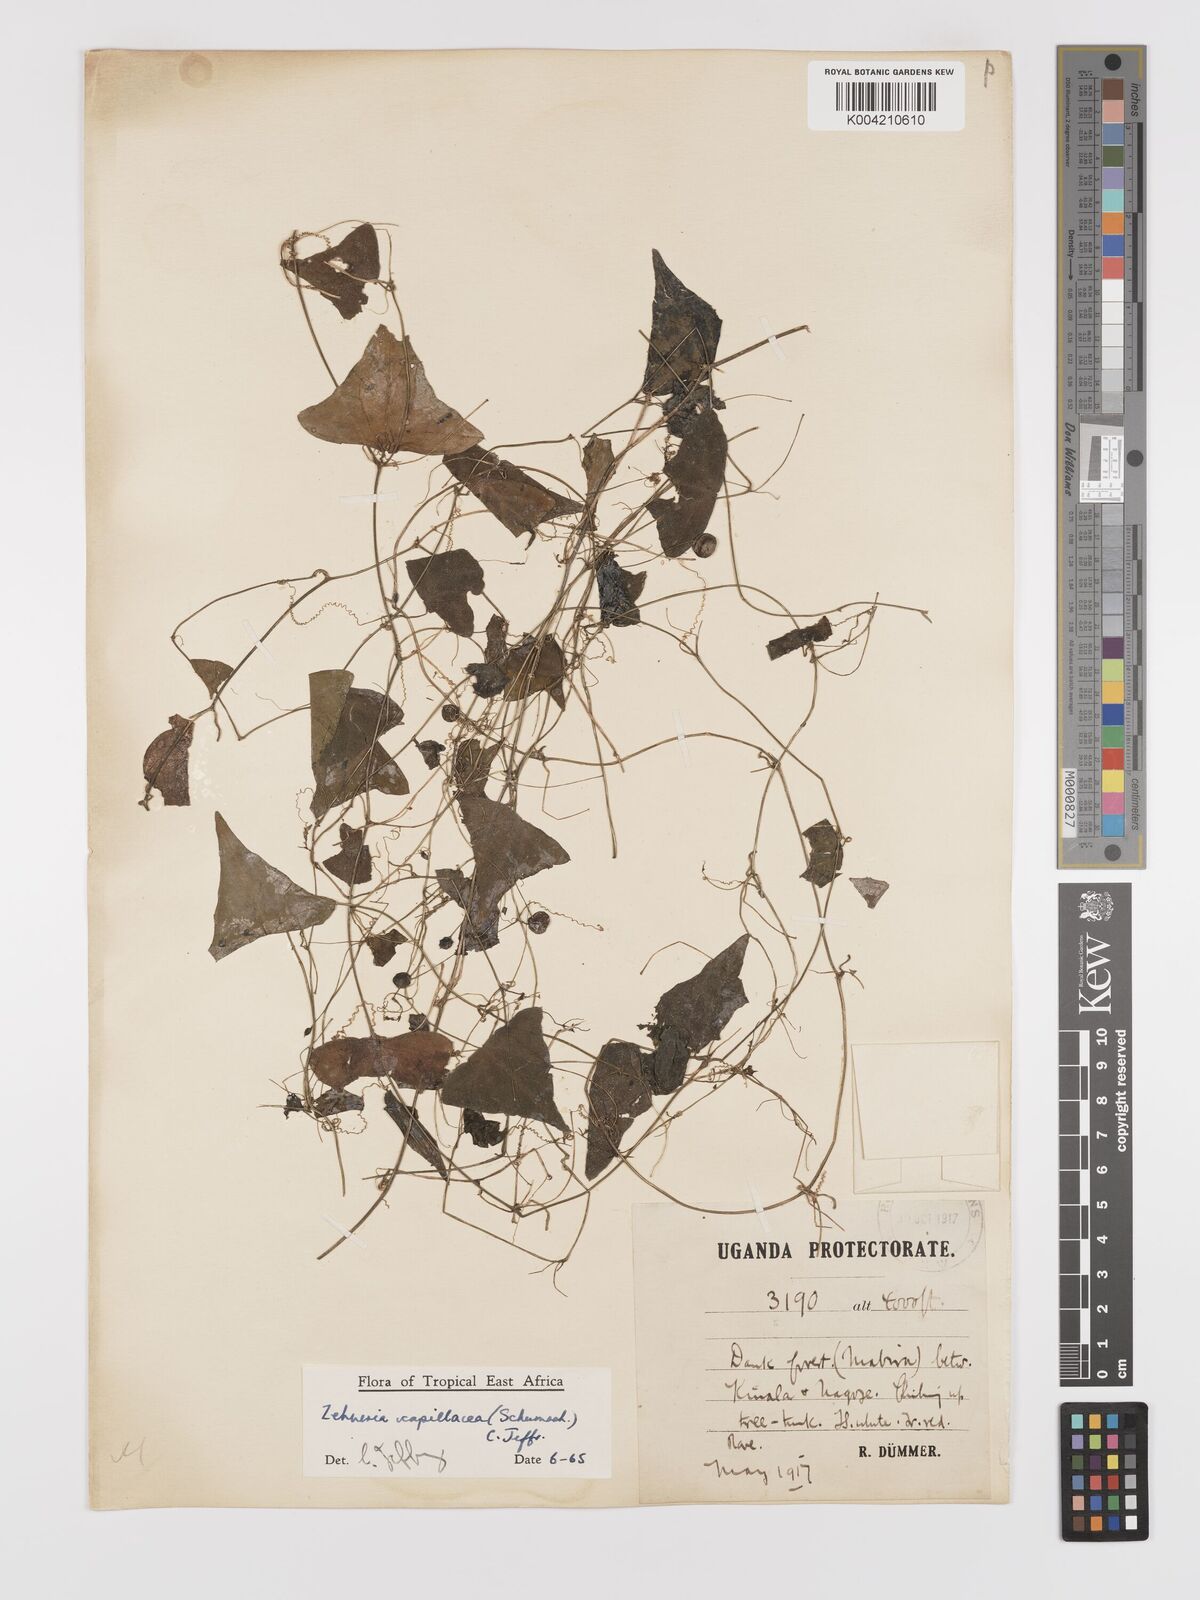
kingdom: Plantae
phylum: Tracheophyta
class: Magnoliopsida
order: Cucurbitales
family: Cucurbitaceae
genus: Zehneria
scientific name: Zehneria capillacea
